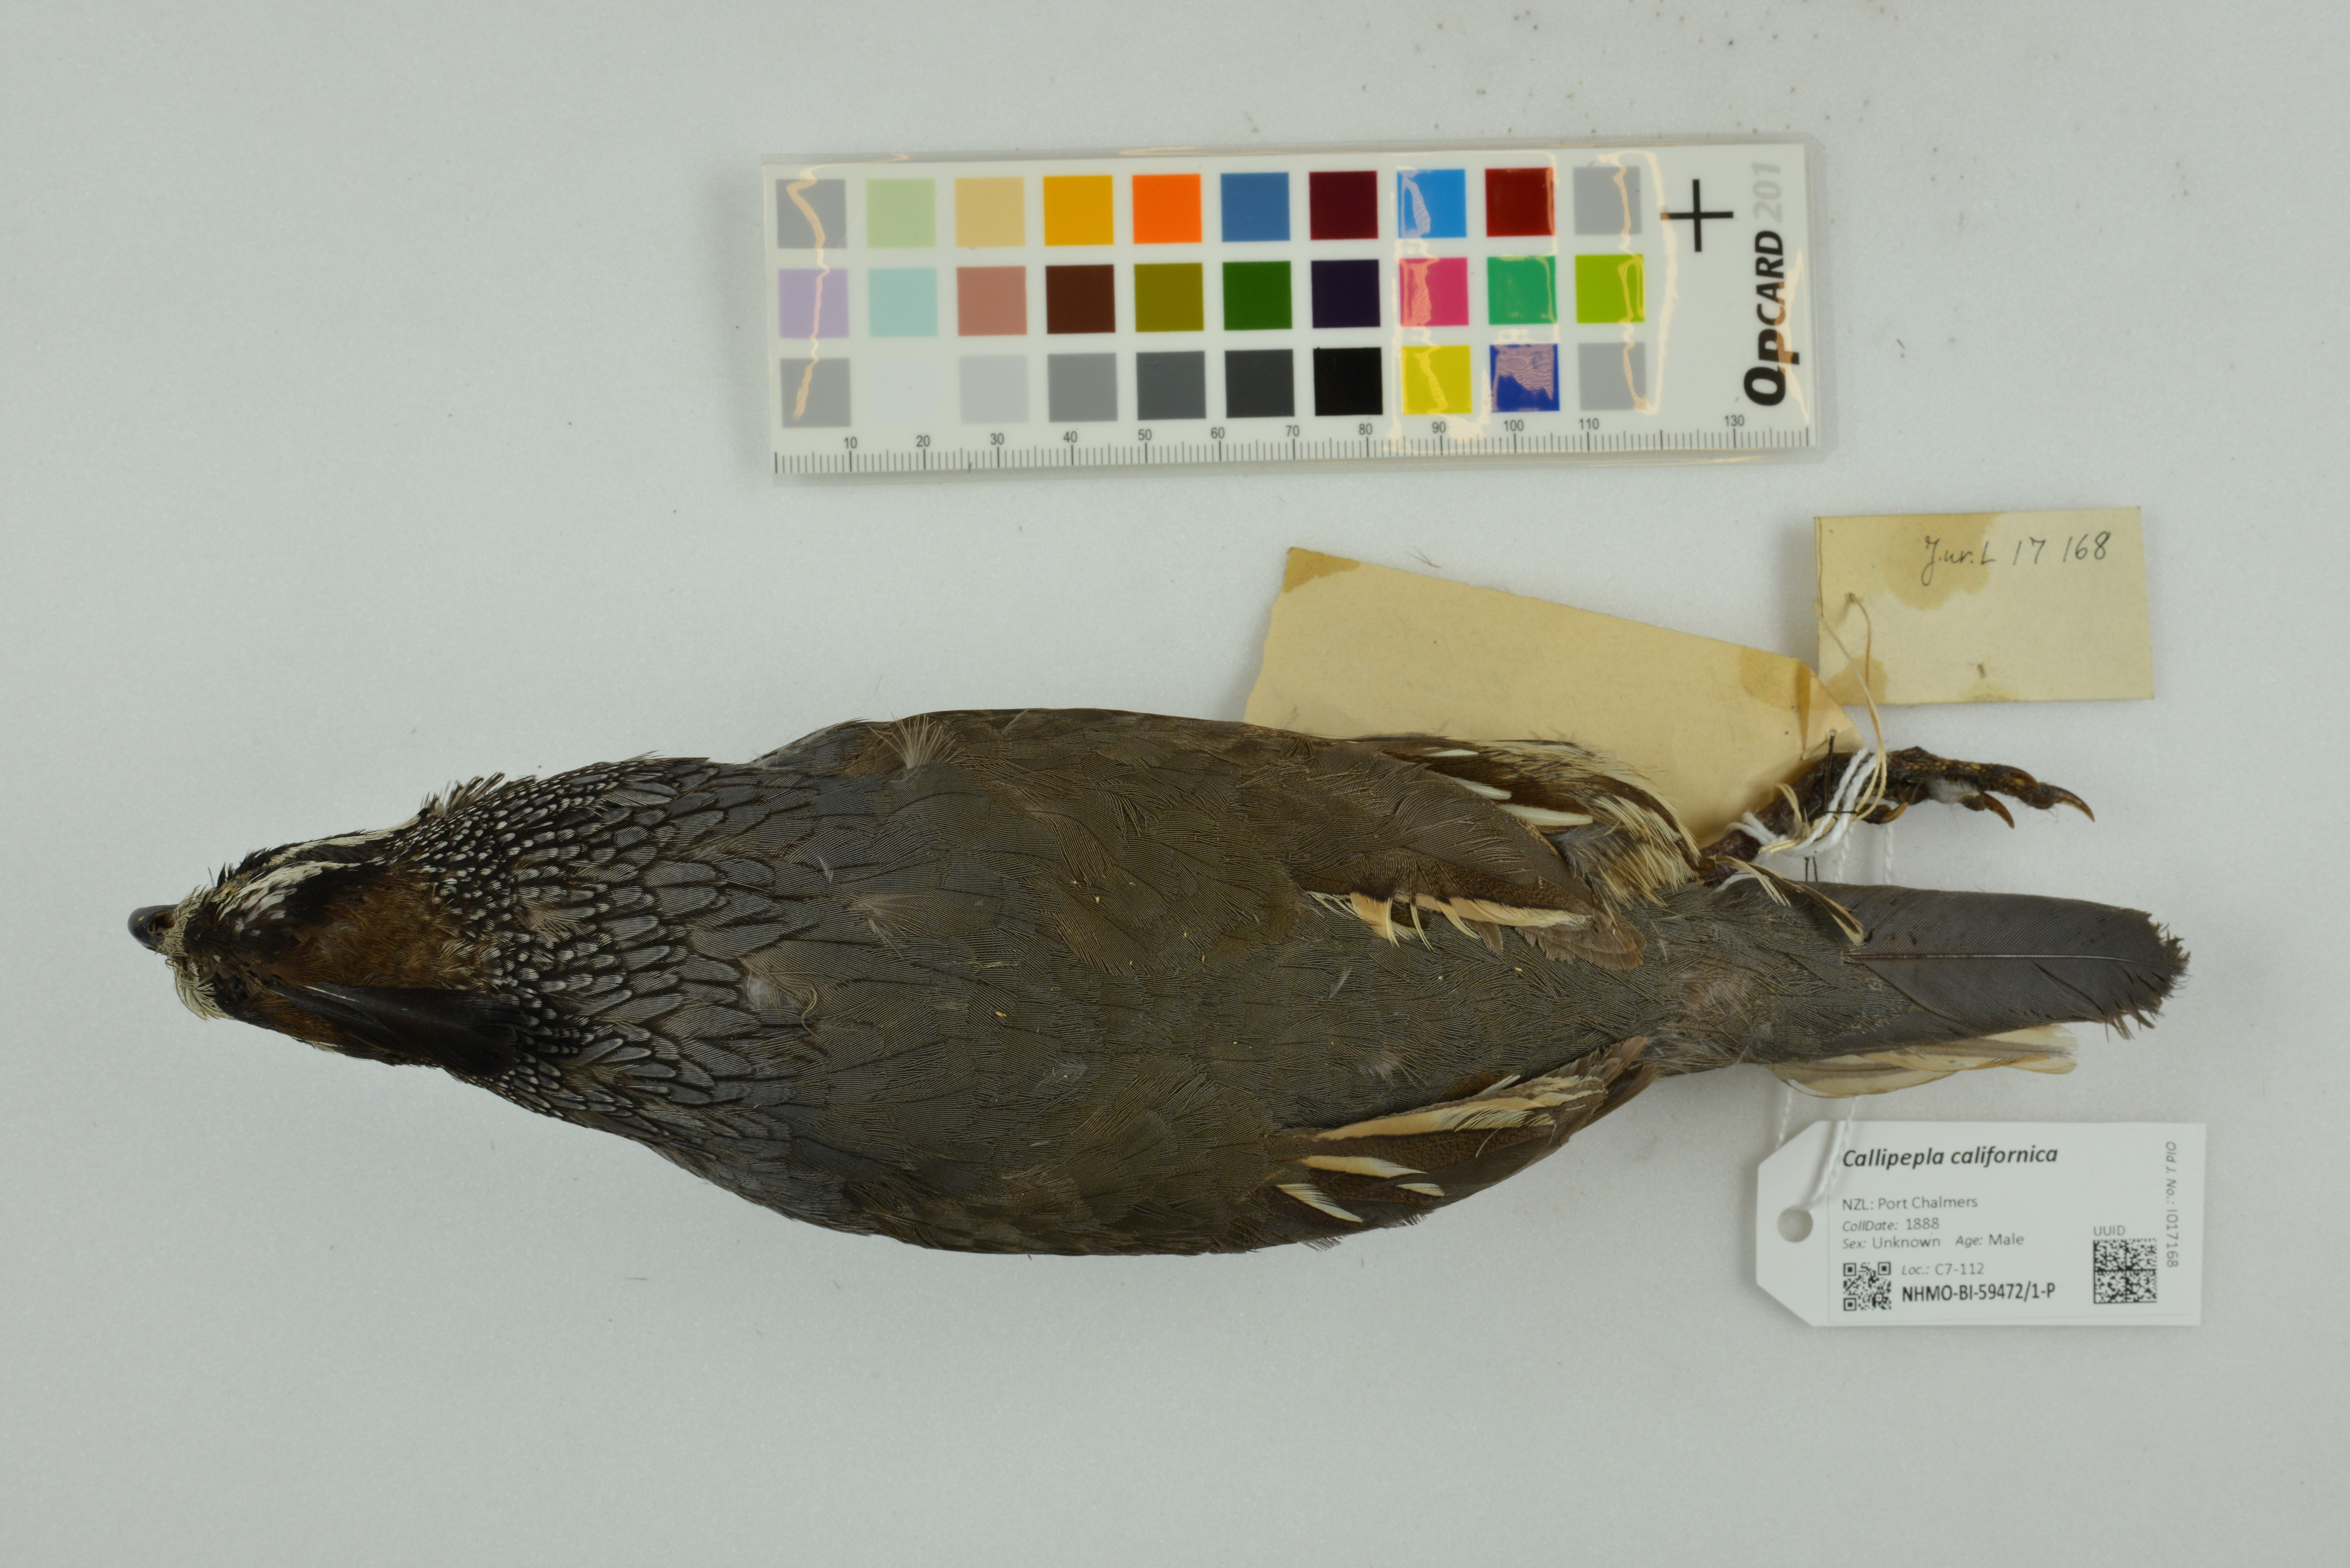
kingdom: Animalia
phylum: Chordata
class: Aves
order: Galliformes
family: Odontophoridae
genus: Callipepla
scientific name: Callipepla californica
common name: California quail
